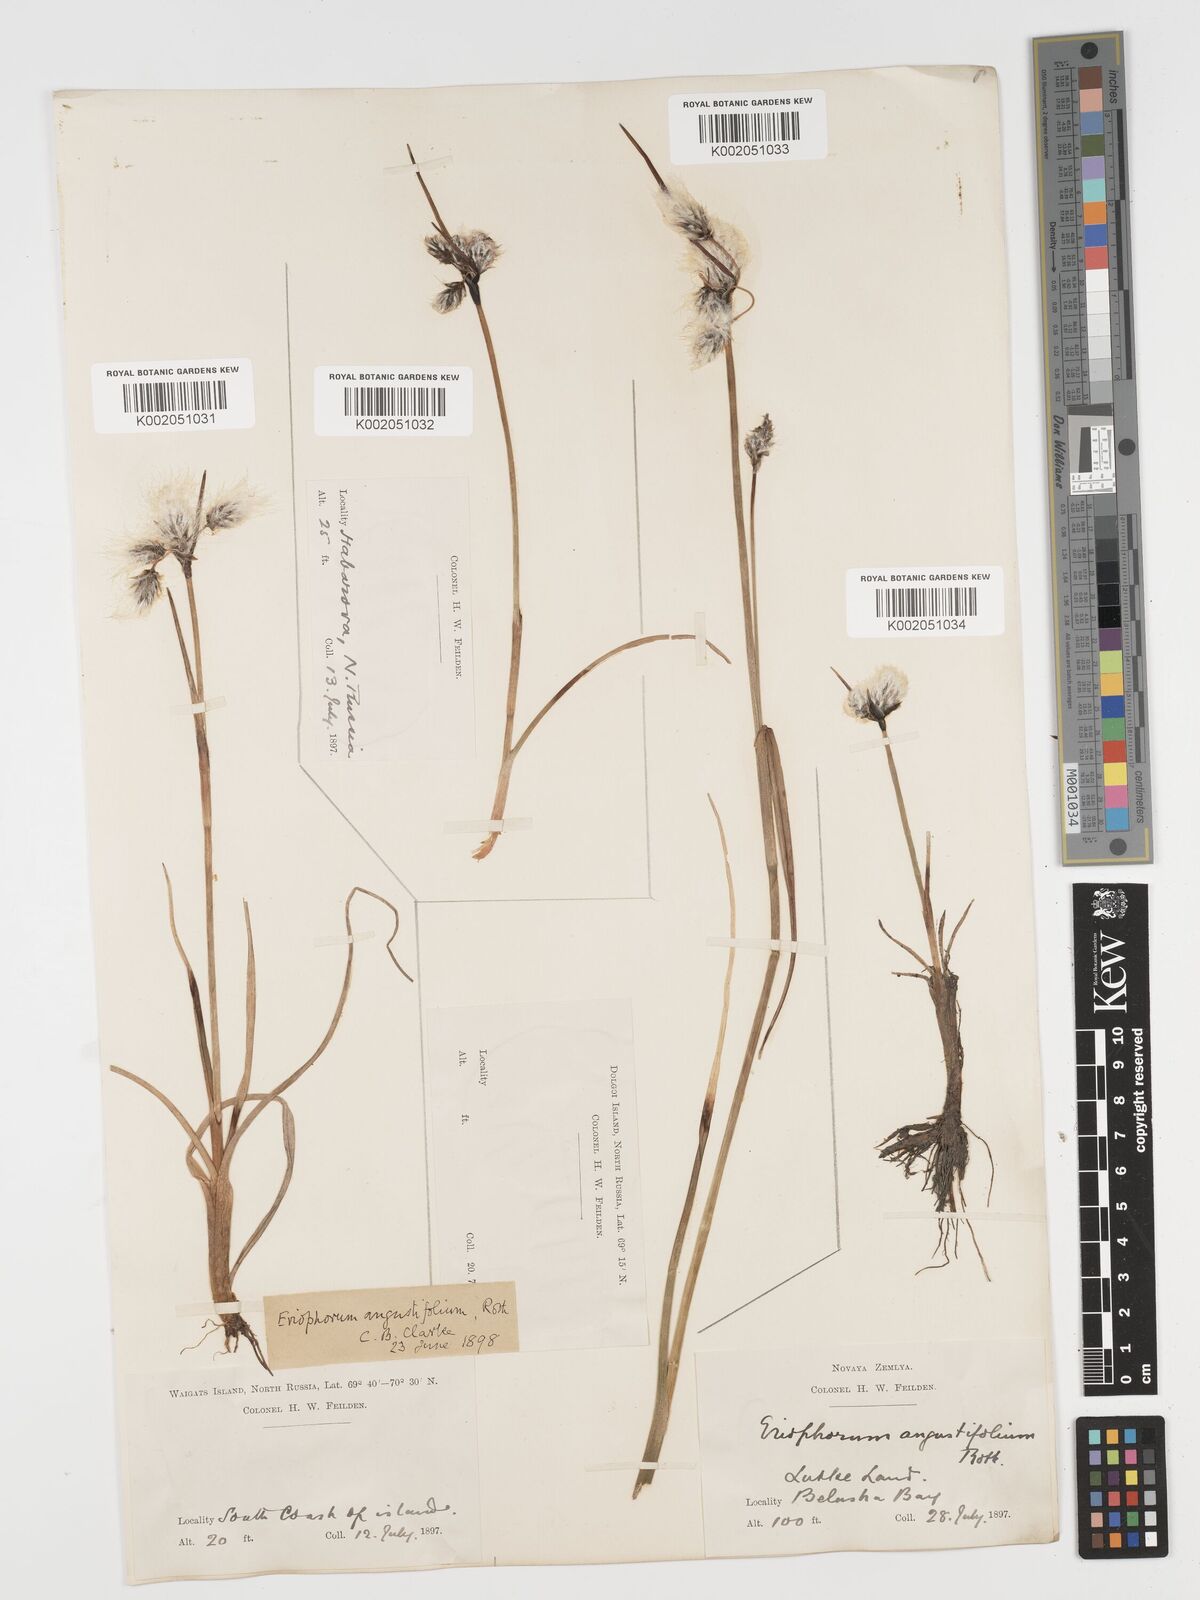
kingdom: Plantae
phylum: Tracheophyta
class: Liliopsida
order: Poales
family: Cyperaceae
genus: Eriophorum
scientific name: Eriophorum angustifolium
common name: Common cottongrass
